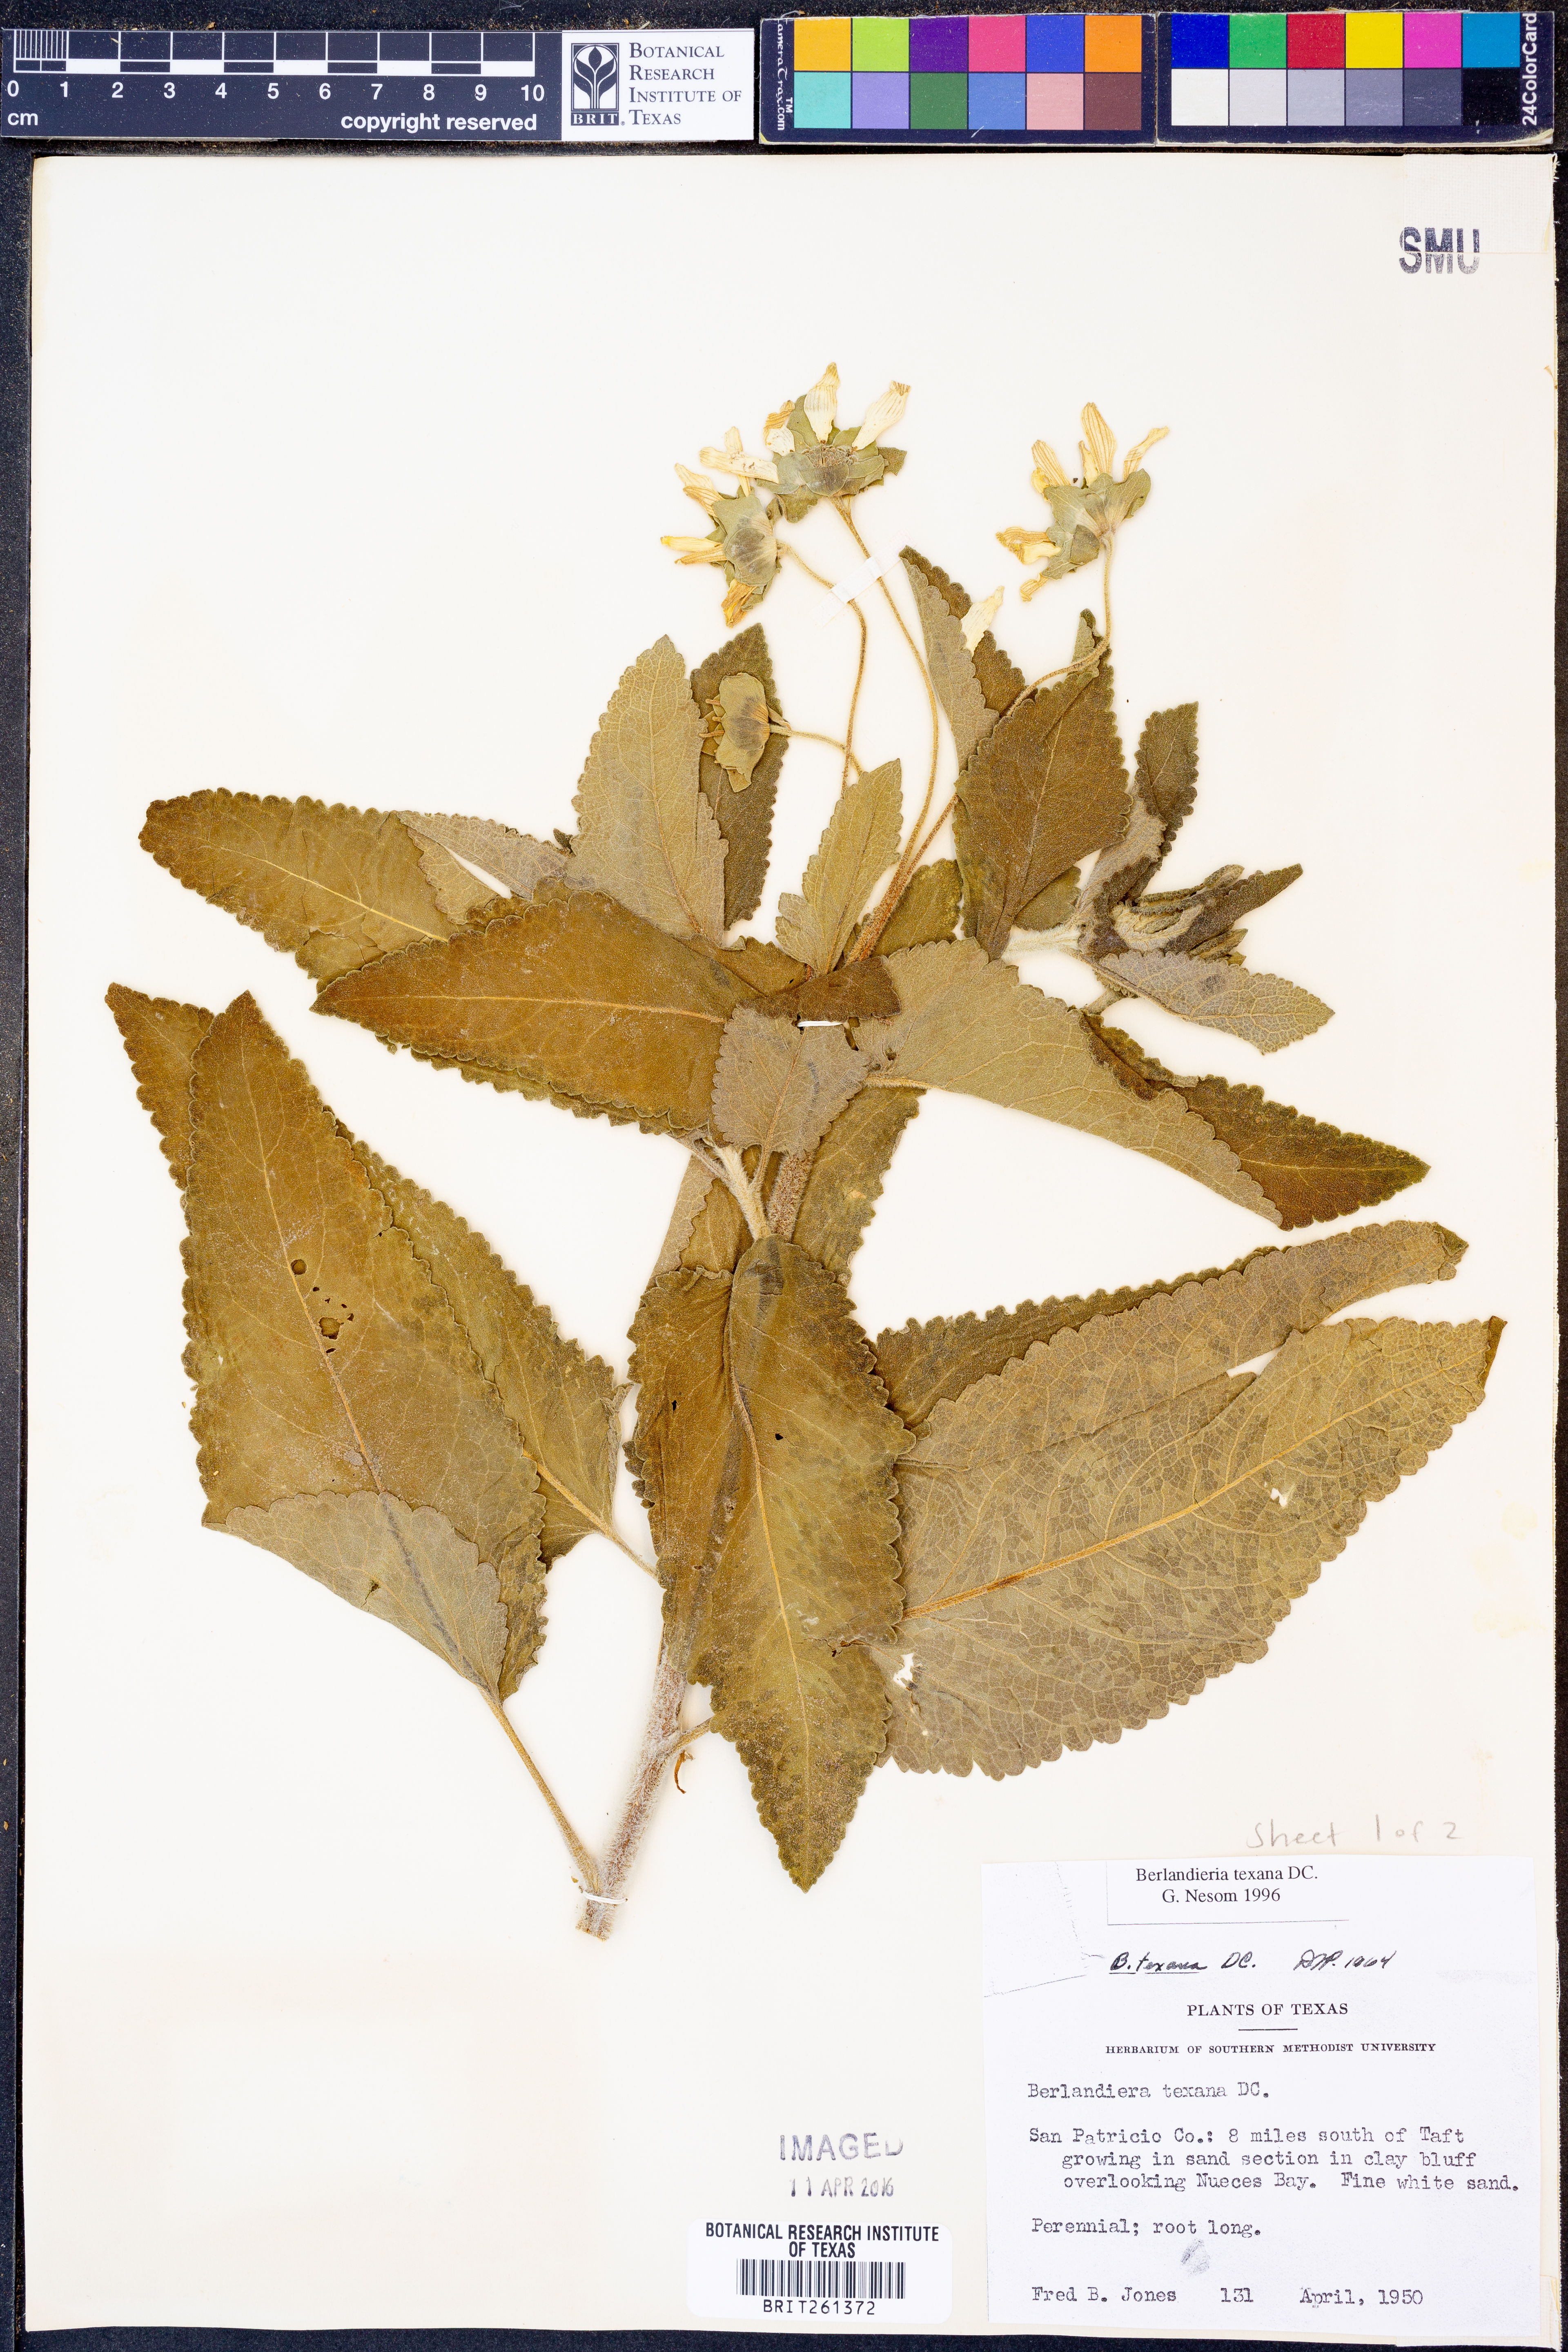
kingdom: Plantae
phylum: Tracheophyta
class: Magnoliopsida
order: Asterales
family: Asteraceae
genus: Berlandiera
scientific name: Berlandiera texana
